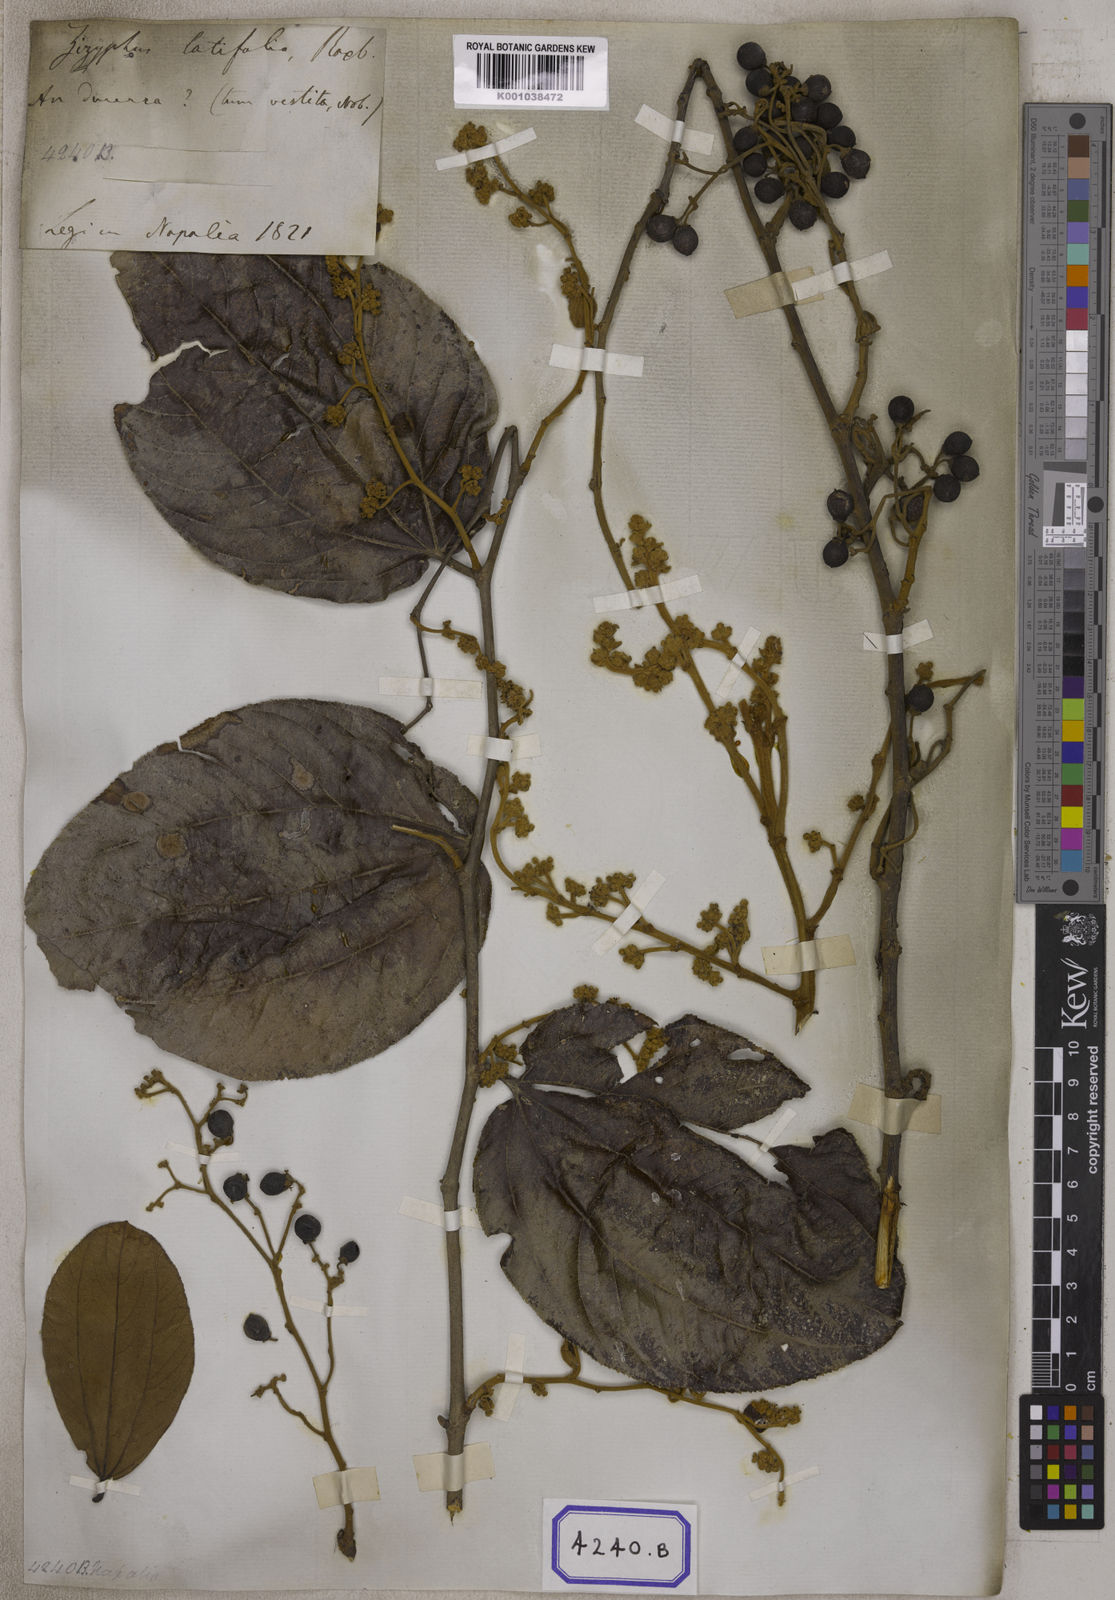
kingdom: Plantae
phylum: Tracheophyta
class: Magnoliopsida
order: Rosales
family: Rhamnaceae
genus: Ziziphus
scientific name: Ziziphus rugosa
